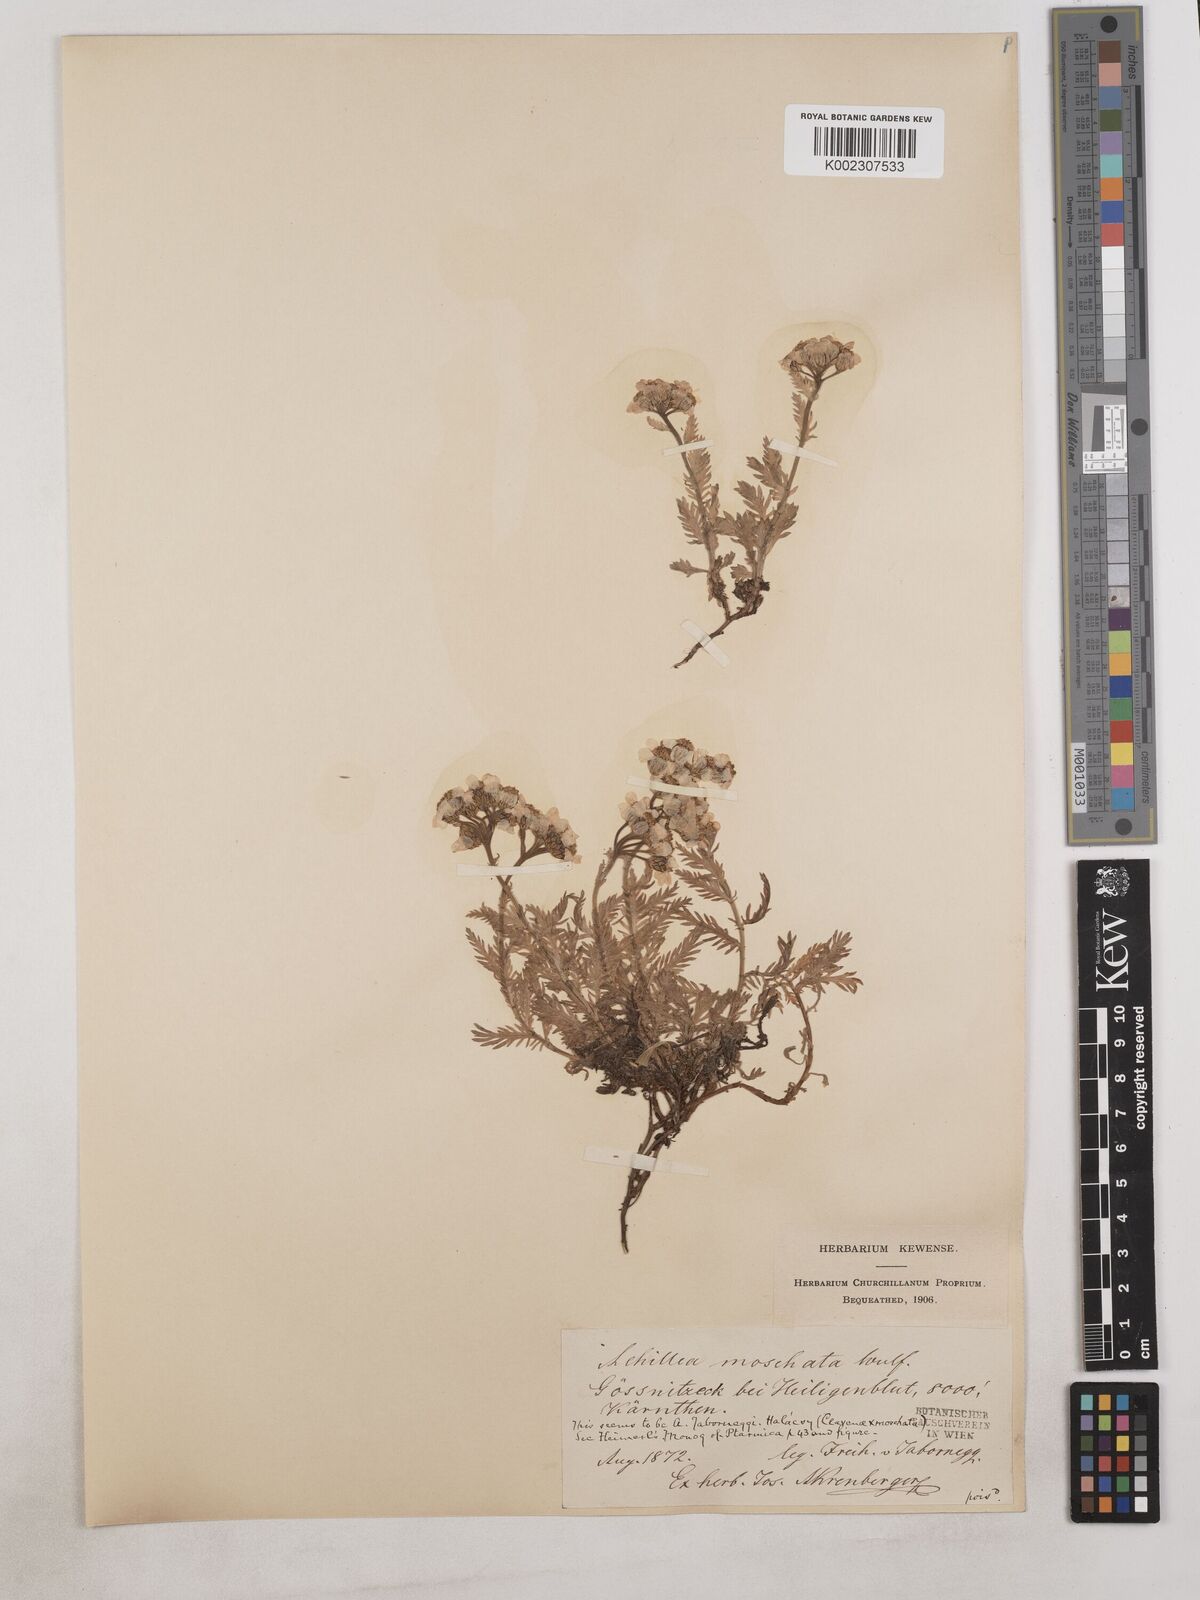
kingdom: Plantae
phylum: Tracheophyta
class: Magnoliopsida
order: Asterales
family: Asteraceae
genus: Achillea
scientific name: Achillea erba-rotta
